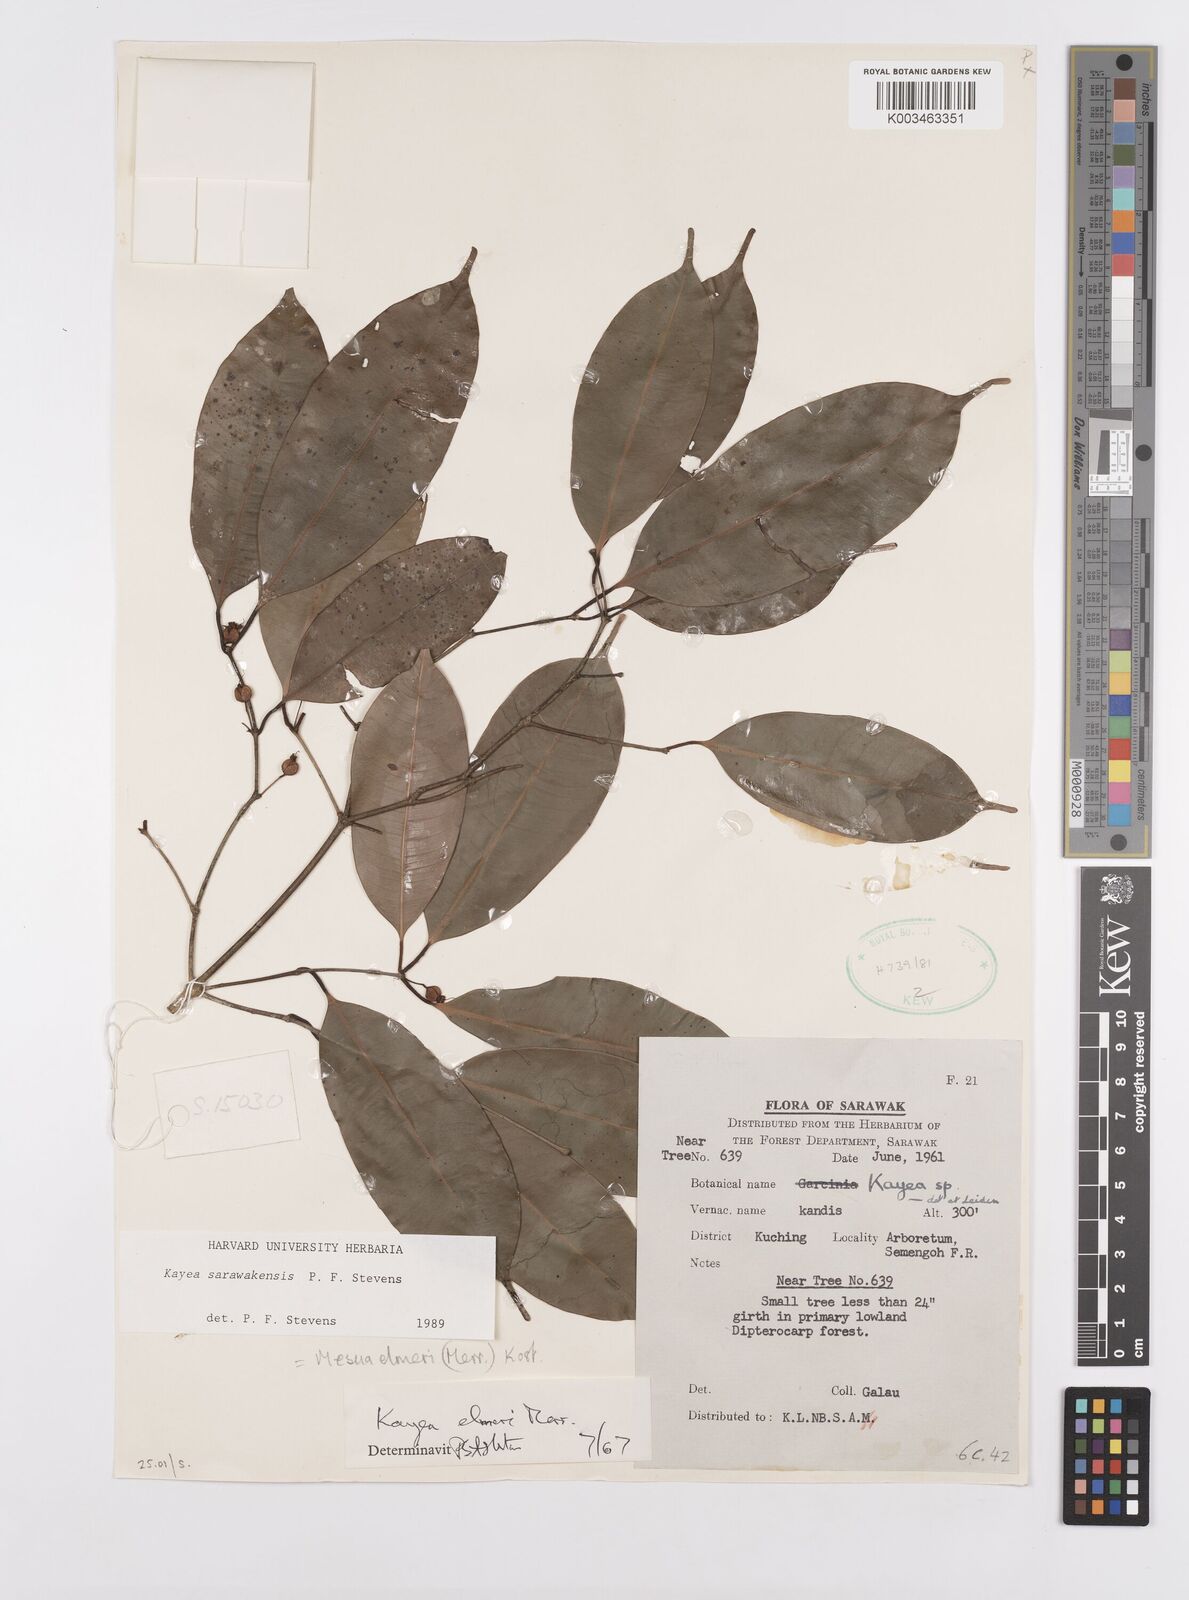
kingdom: Plantae
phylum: Tracheophyta
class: Magnoliopsida
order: Malpighiales
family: Calophyllaceae
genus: Kayea
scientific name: Kayea
